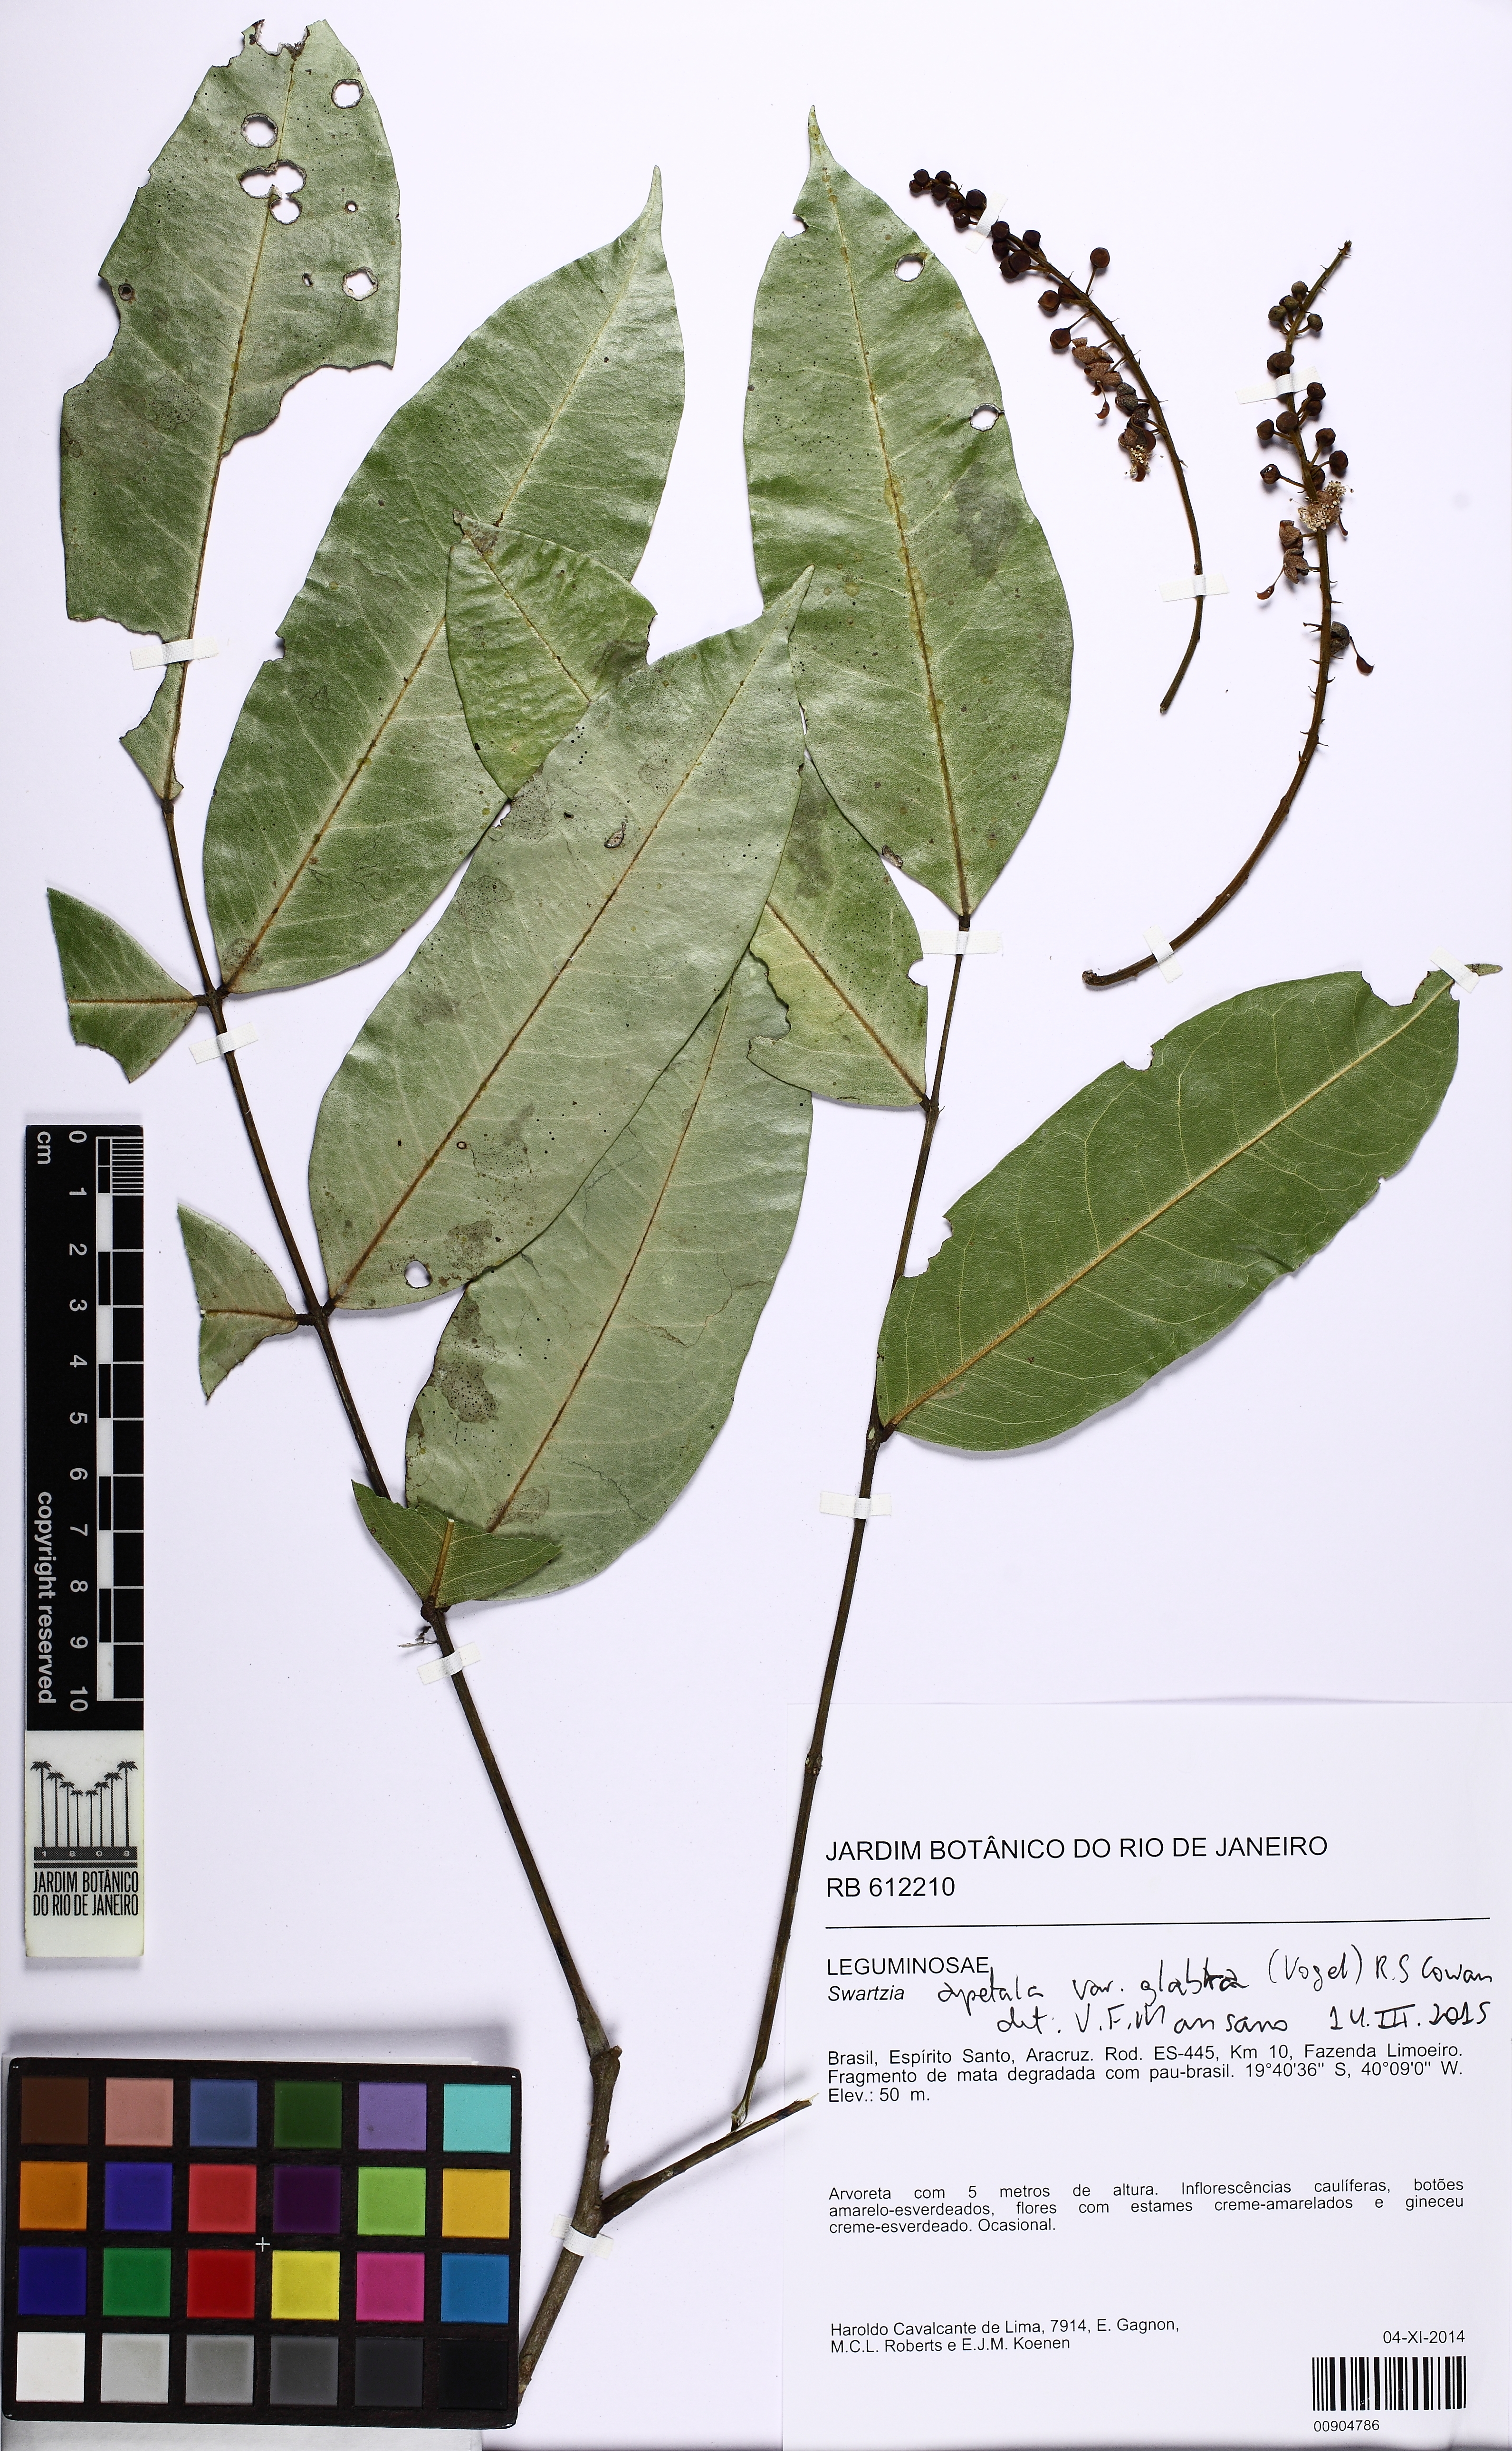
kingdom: Plantae
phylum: Tracheophyta
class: Magnoliopsida
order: Fabales
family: Fabaceae
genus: Swartzia
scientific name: Swartzia apetala
